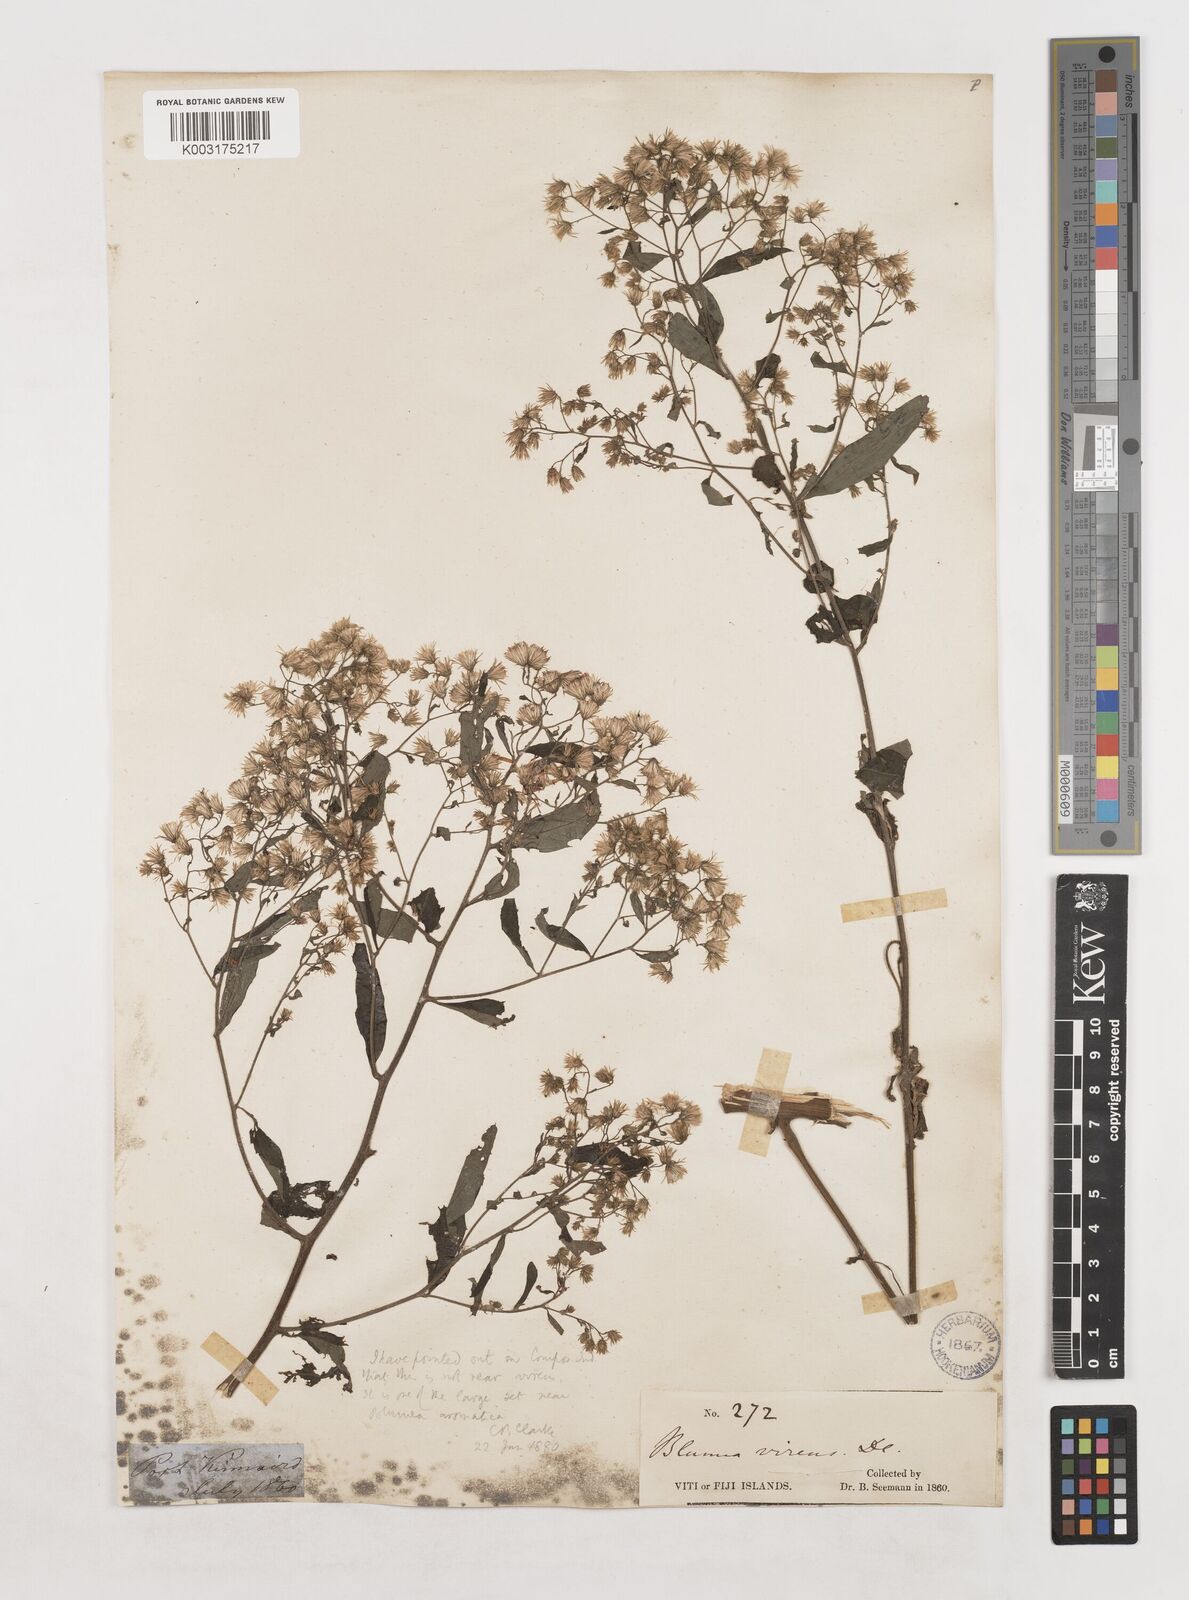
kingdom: Plantae
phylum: Tracheophyta
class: Magnoliopsida
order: Asterales
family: Asteraceae
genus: Blumea
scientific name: Blumea milnei
